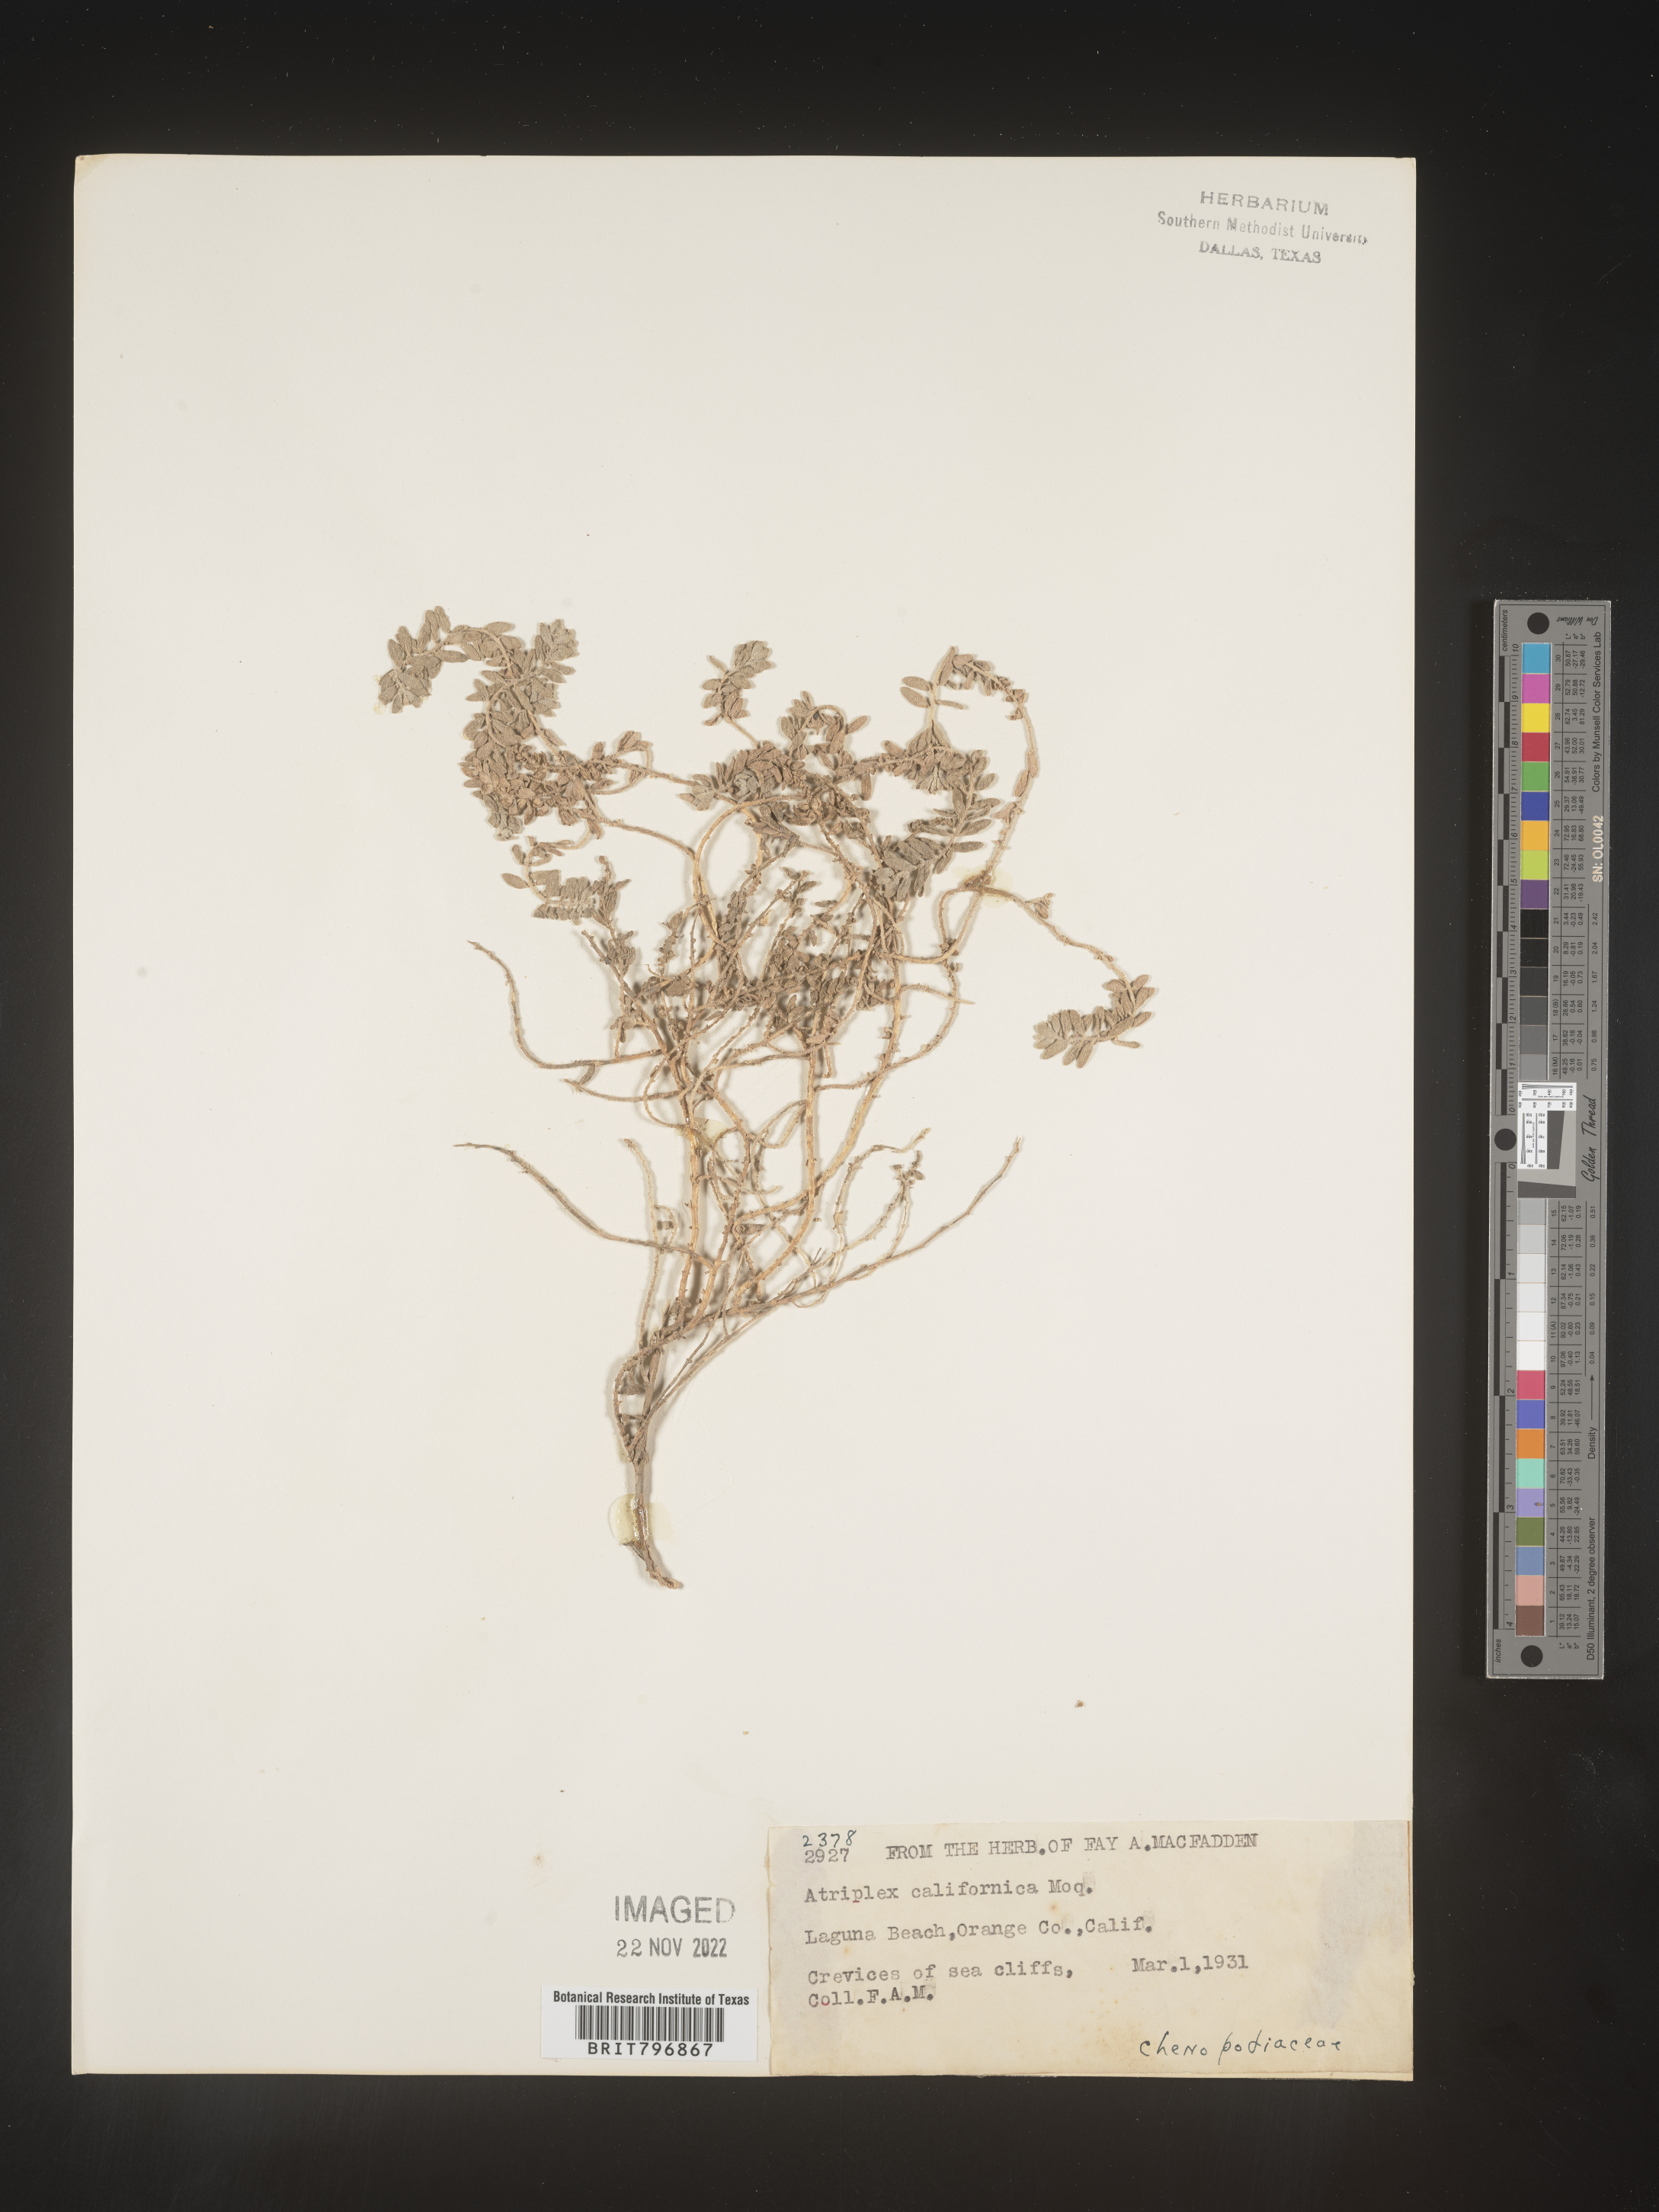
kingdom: Plantae
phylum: Tracheophyta
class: Magnoliopsida
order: Caryophyllales
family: Amaranthaceae
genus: Atriplex
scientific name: Atriplex
